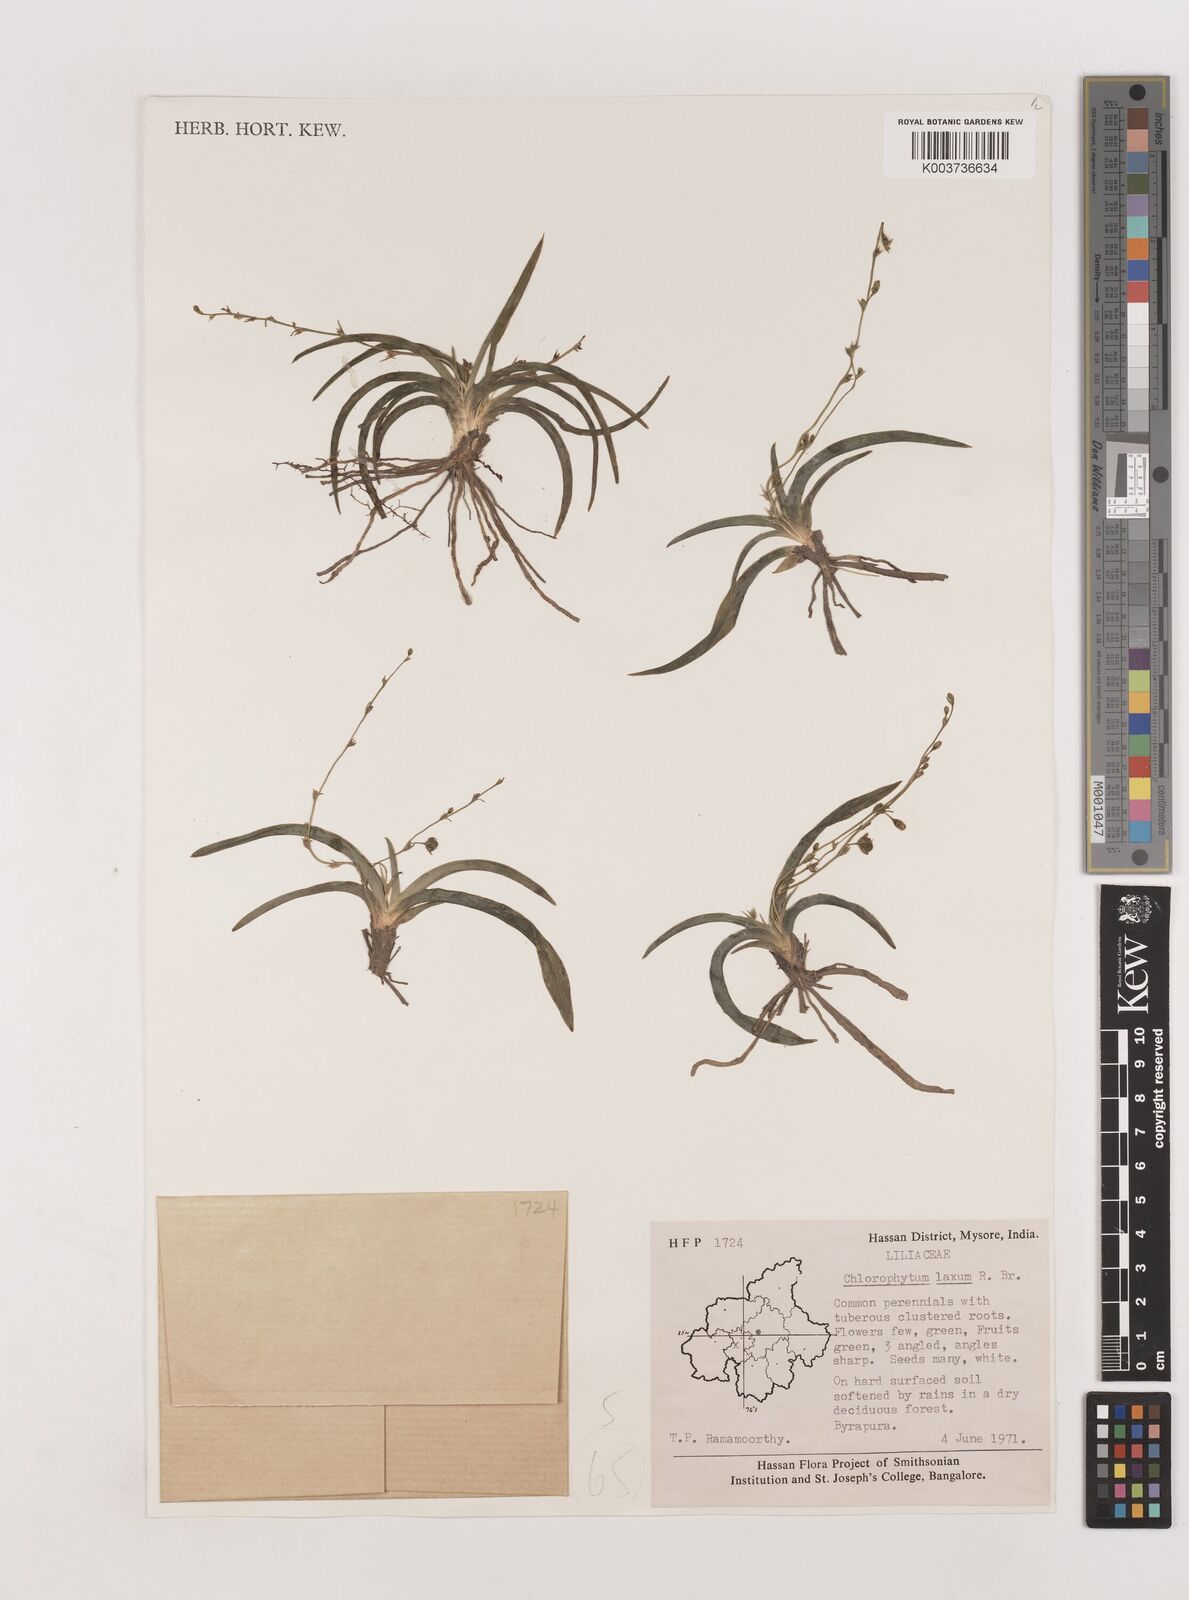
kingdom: Plantae
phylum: Tracheophyta
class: Liliopsida
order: Asparagales
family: Asparagaceae
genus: Chlorophytum
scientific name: Chlorophytum laxum
